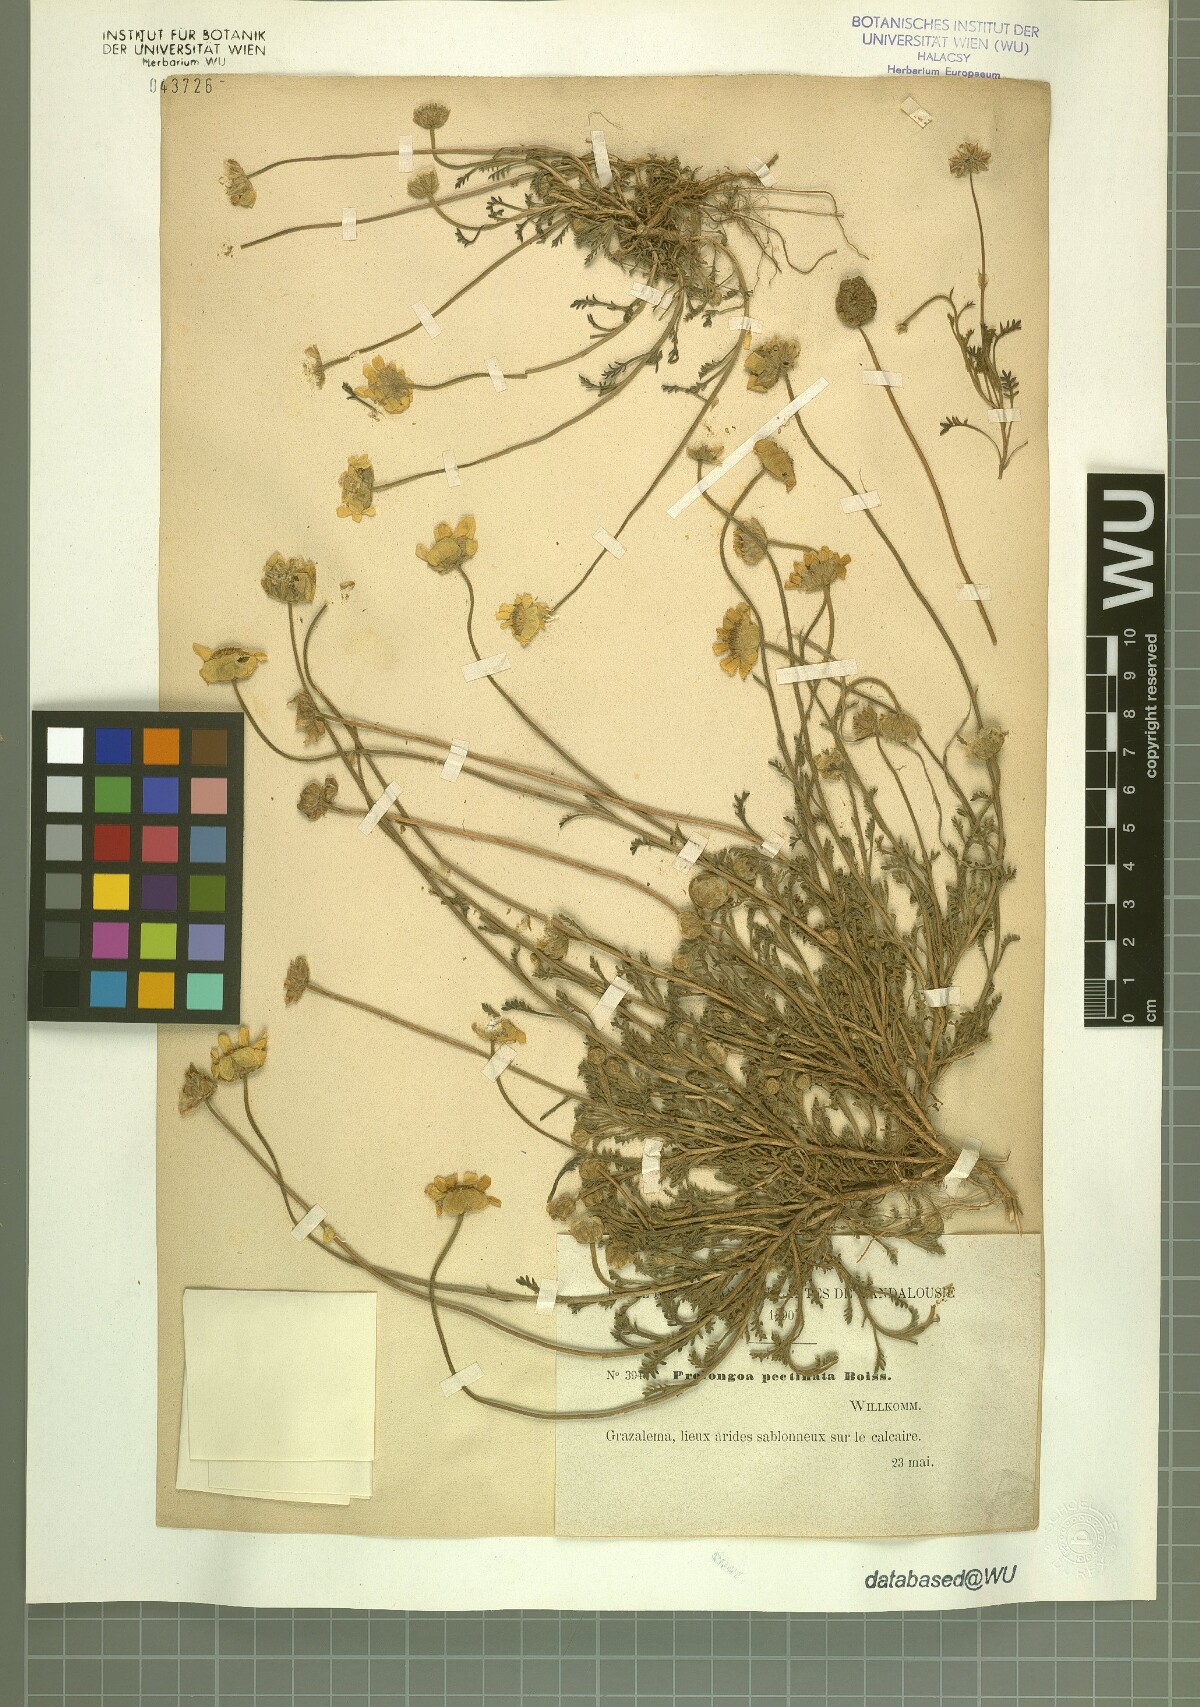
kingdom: Plantae
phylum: Tracheophyta
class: Magnoliopsida
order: Asterales
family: Asteraceae
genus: Leucanthemopsis
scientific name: Leucanthemopsis pectinata
